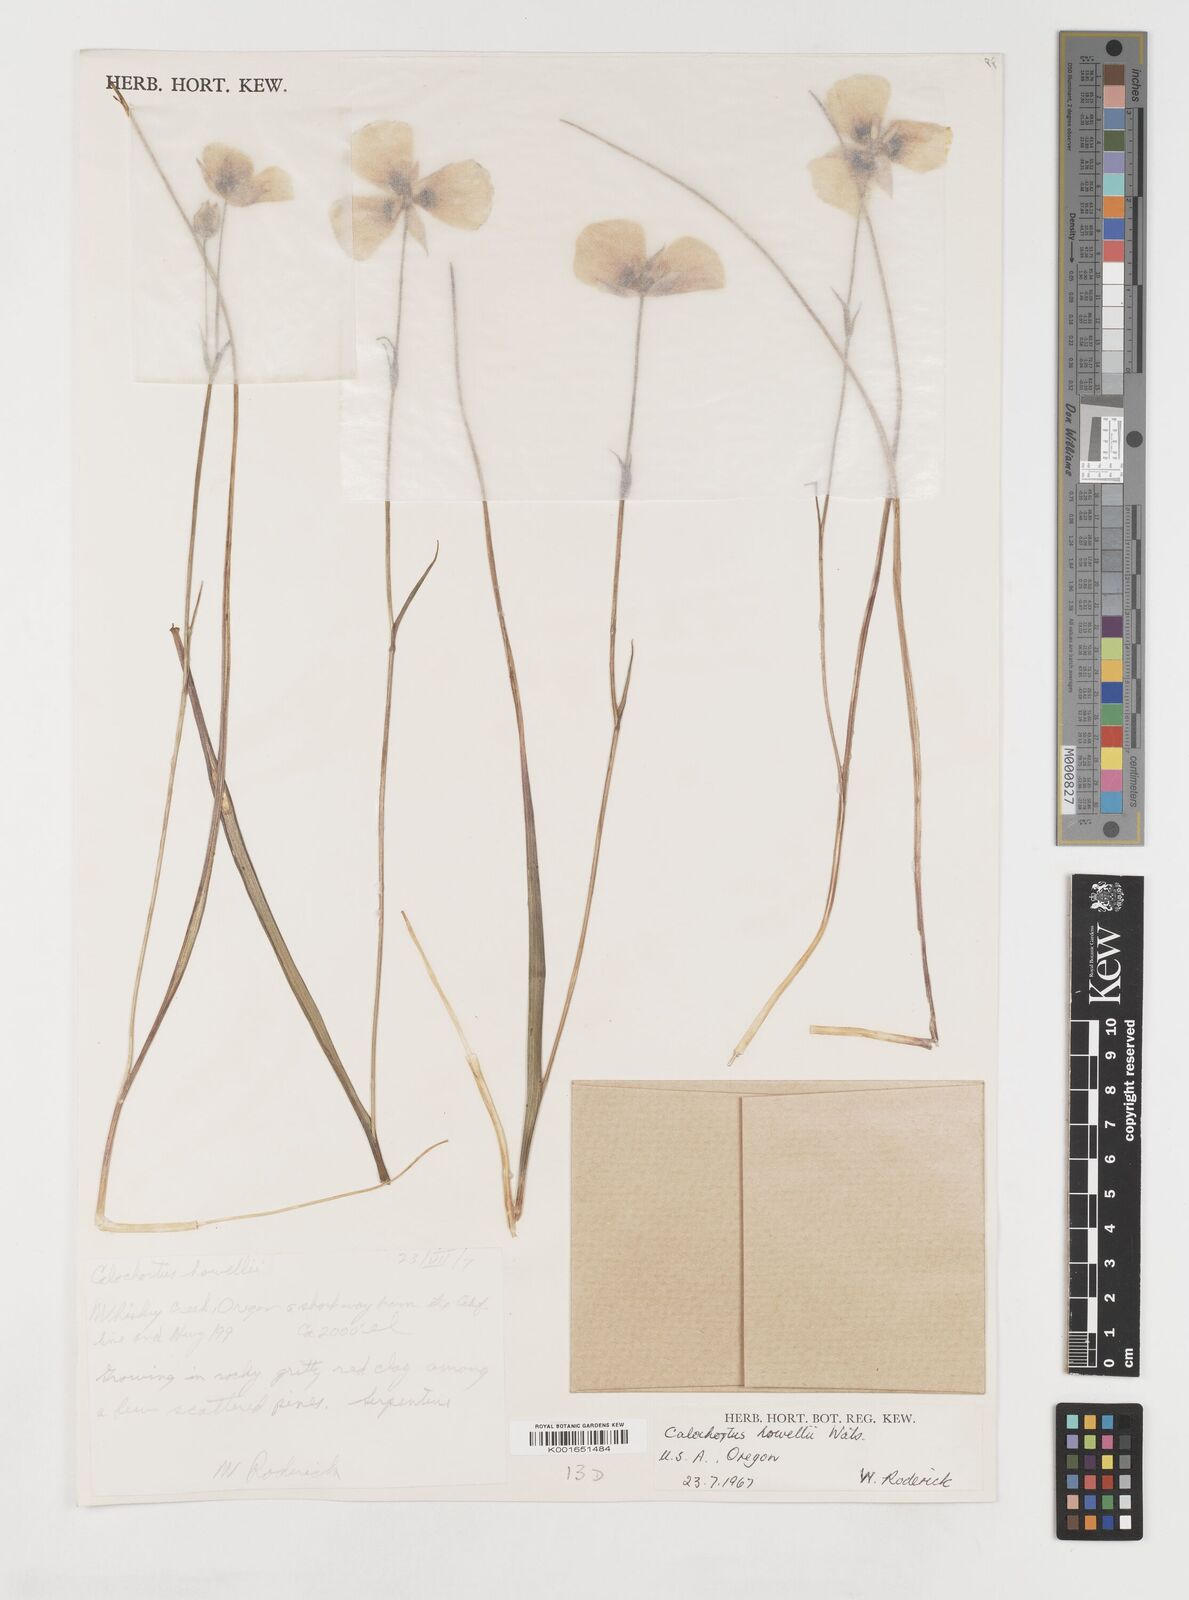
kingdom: Plantae
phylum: Tracheophyta
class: Liliopsida
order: Liliales
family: Liliaceae
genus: Calochortus
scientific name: Calochortus howellii
